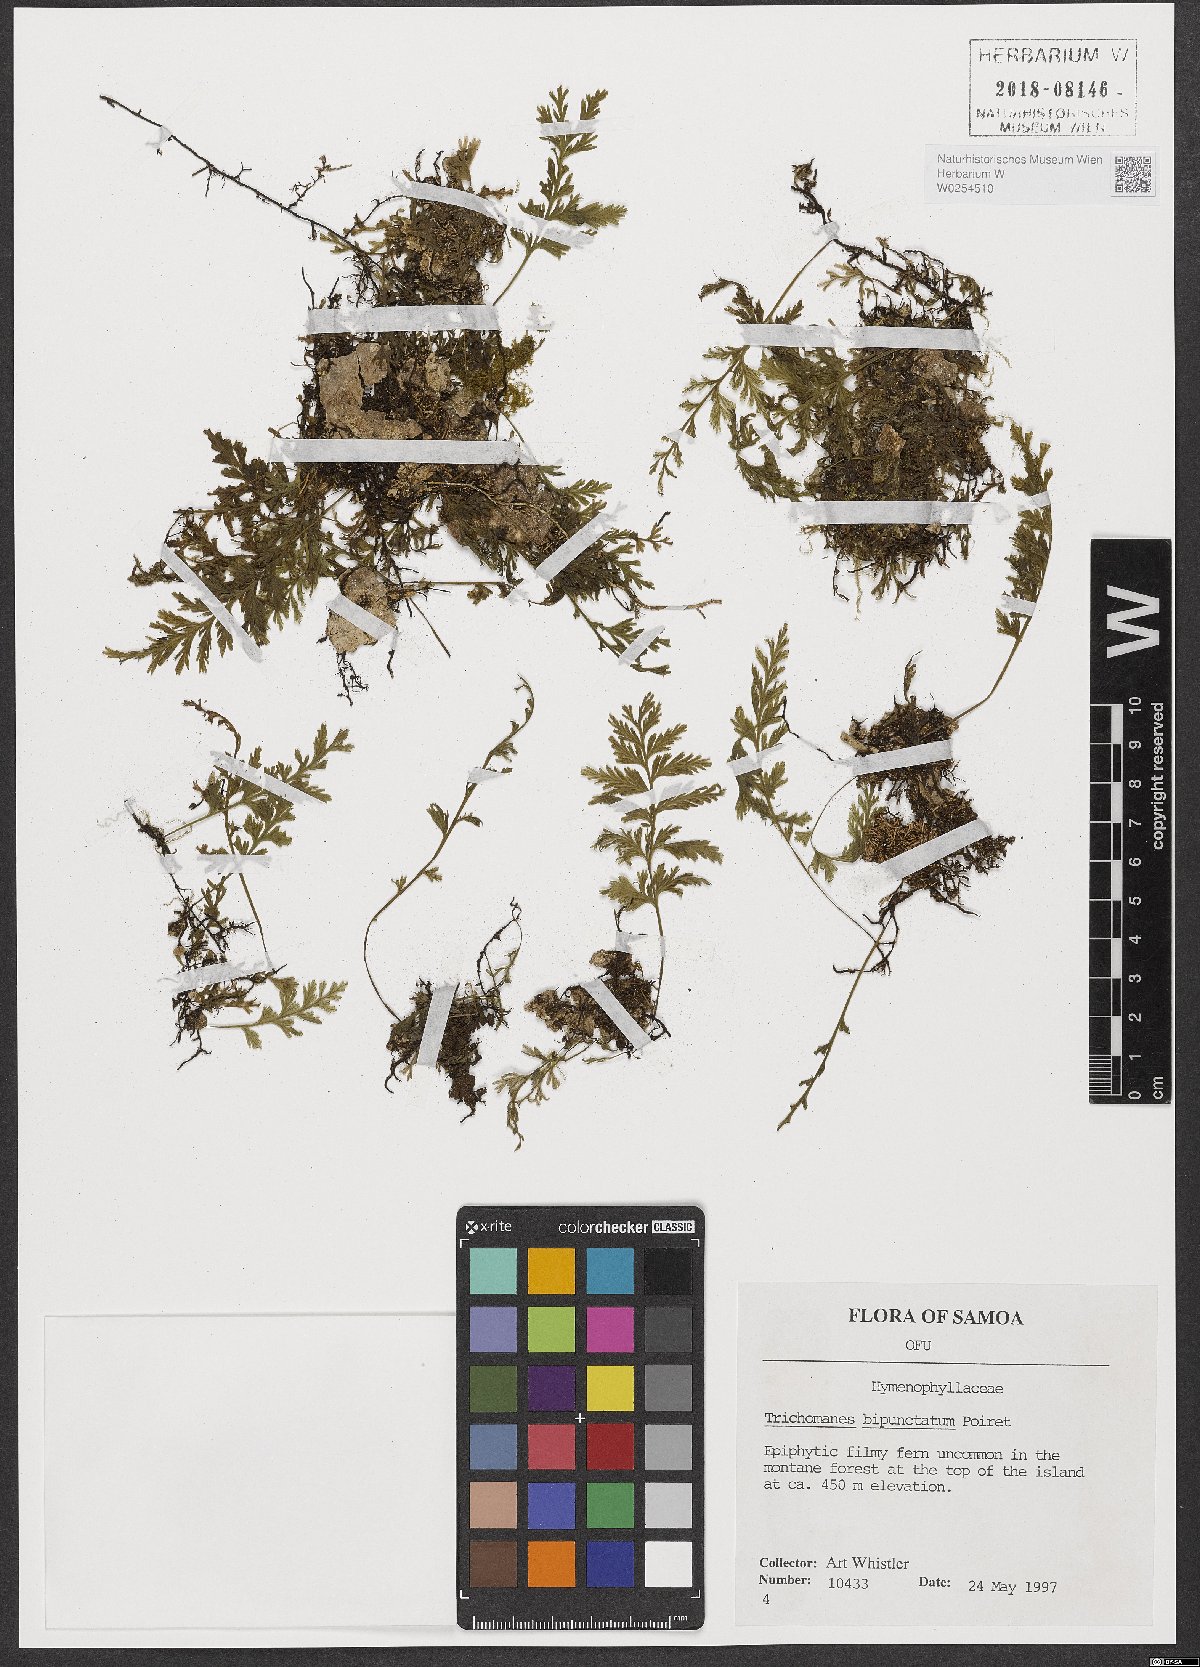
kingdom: Plantae
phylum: Tracheophyta
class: Polypodiopsida
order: Hymenophyllales
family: Hymenophyllaceae
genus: Crepidomanes
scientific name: Crepidomanes bipunctatum
